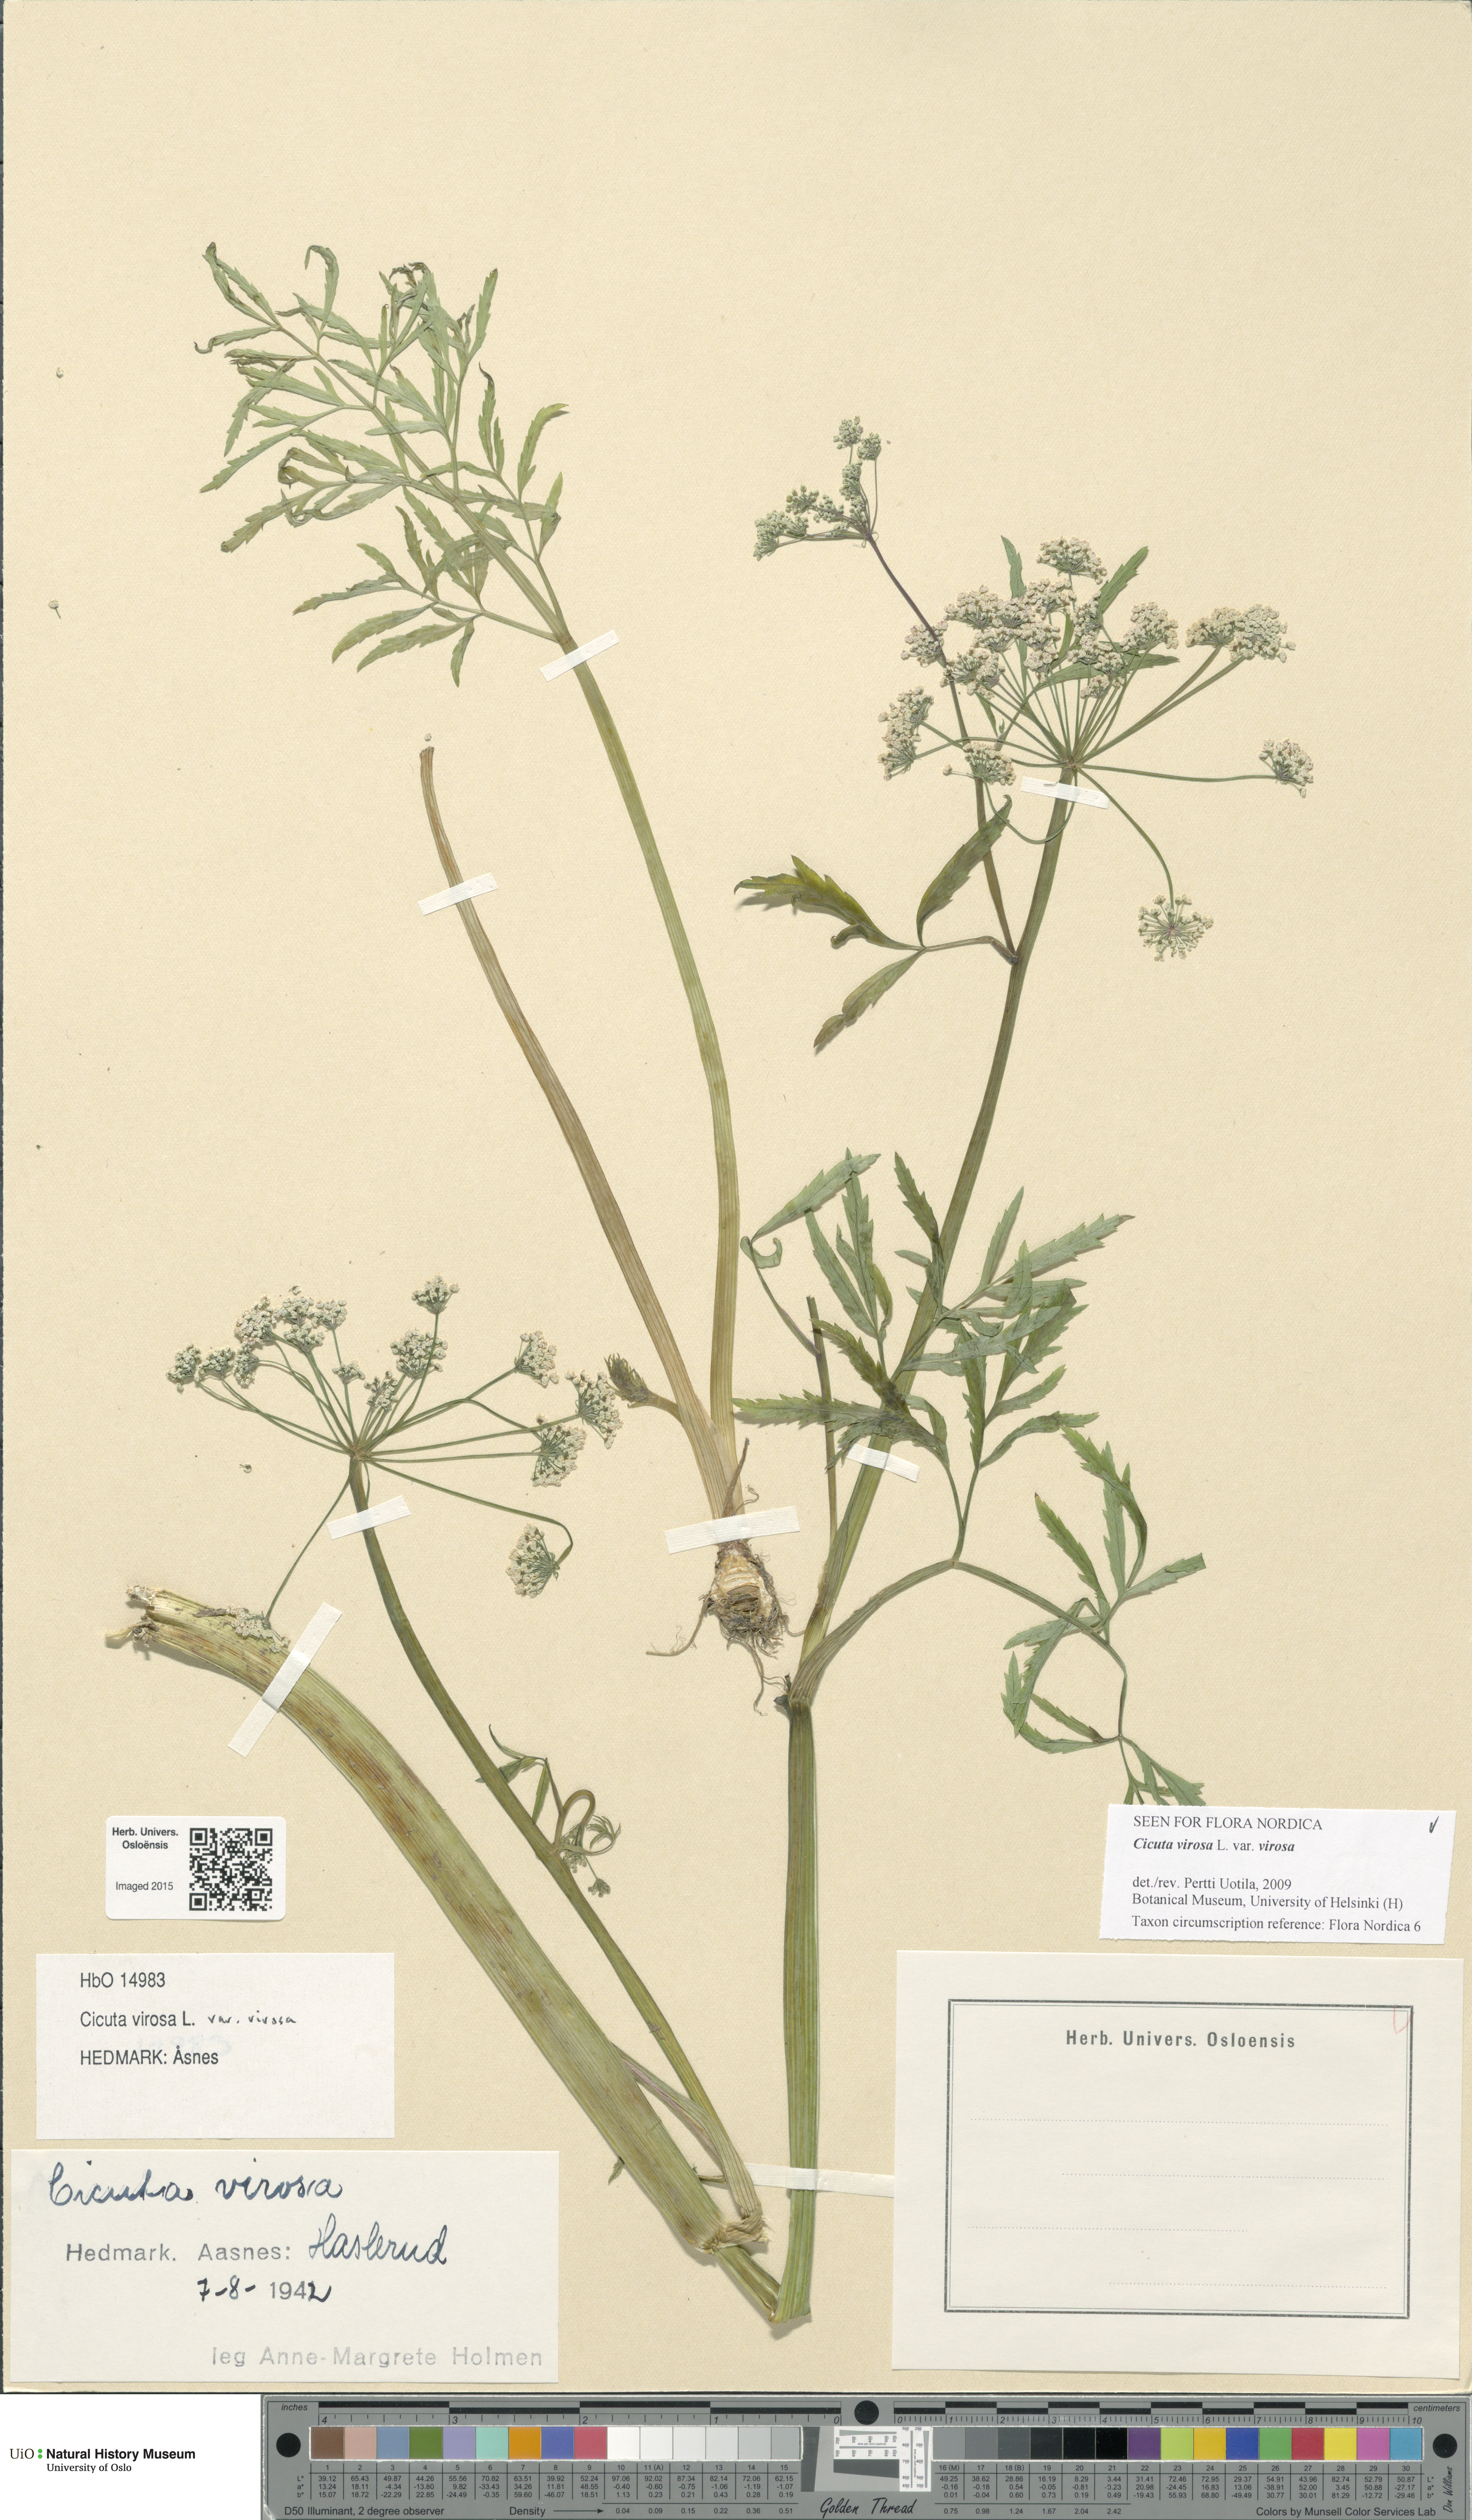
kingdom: Plantae
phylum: Tracheophyta
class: Magnoliopsida
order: Apiales
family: Apiaceae
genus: Cicuta
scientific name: Cicuta virosa
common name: Cowbane
